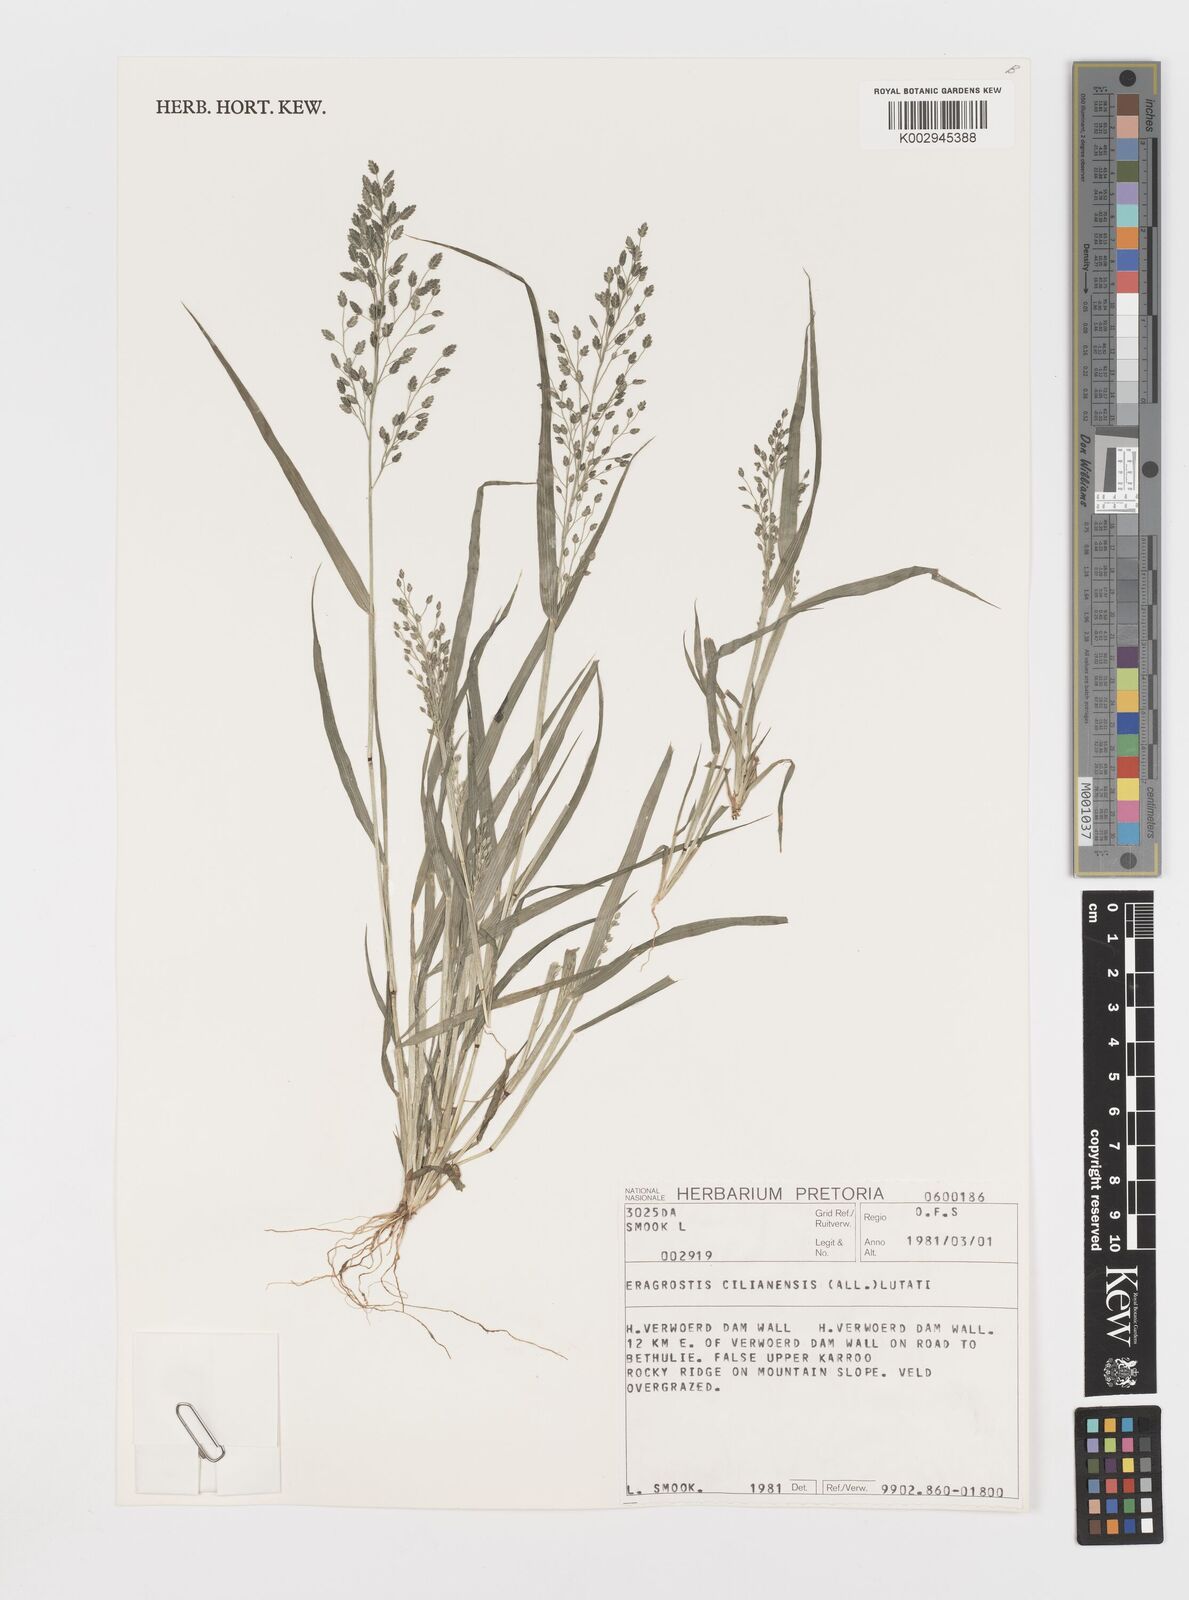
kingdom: Plantae
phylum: Tracheophyta
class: Liliopsida
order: Poales
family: Poaceae
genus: Eragrostis
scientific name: Eragrostis cilianensis
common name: Stinkgrass
